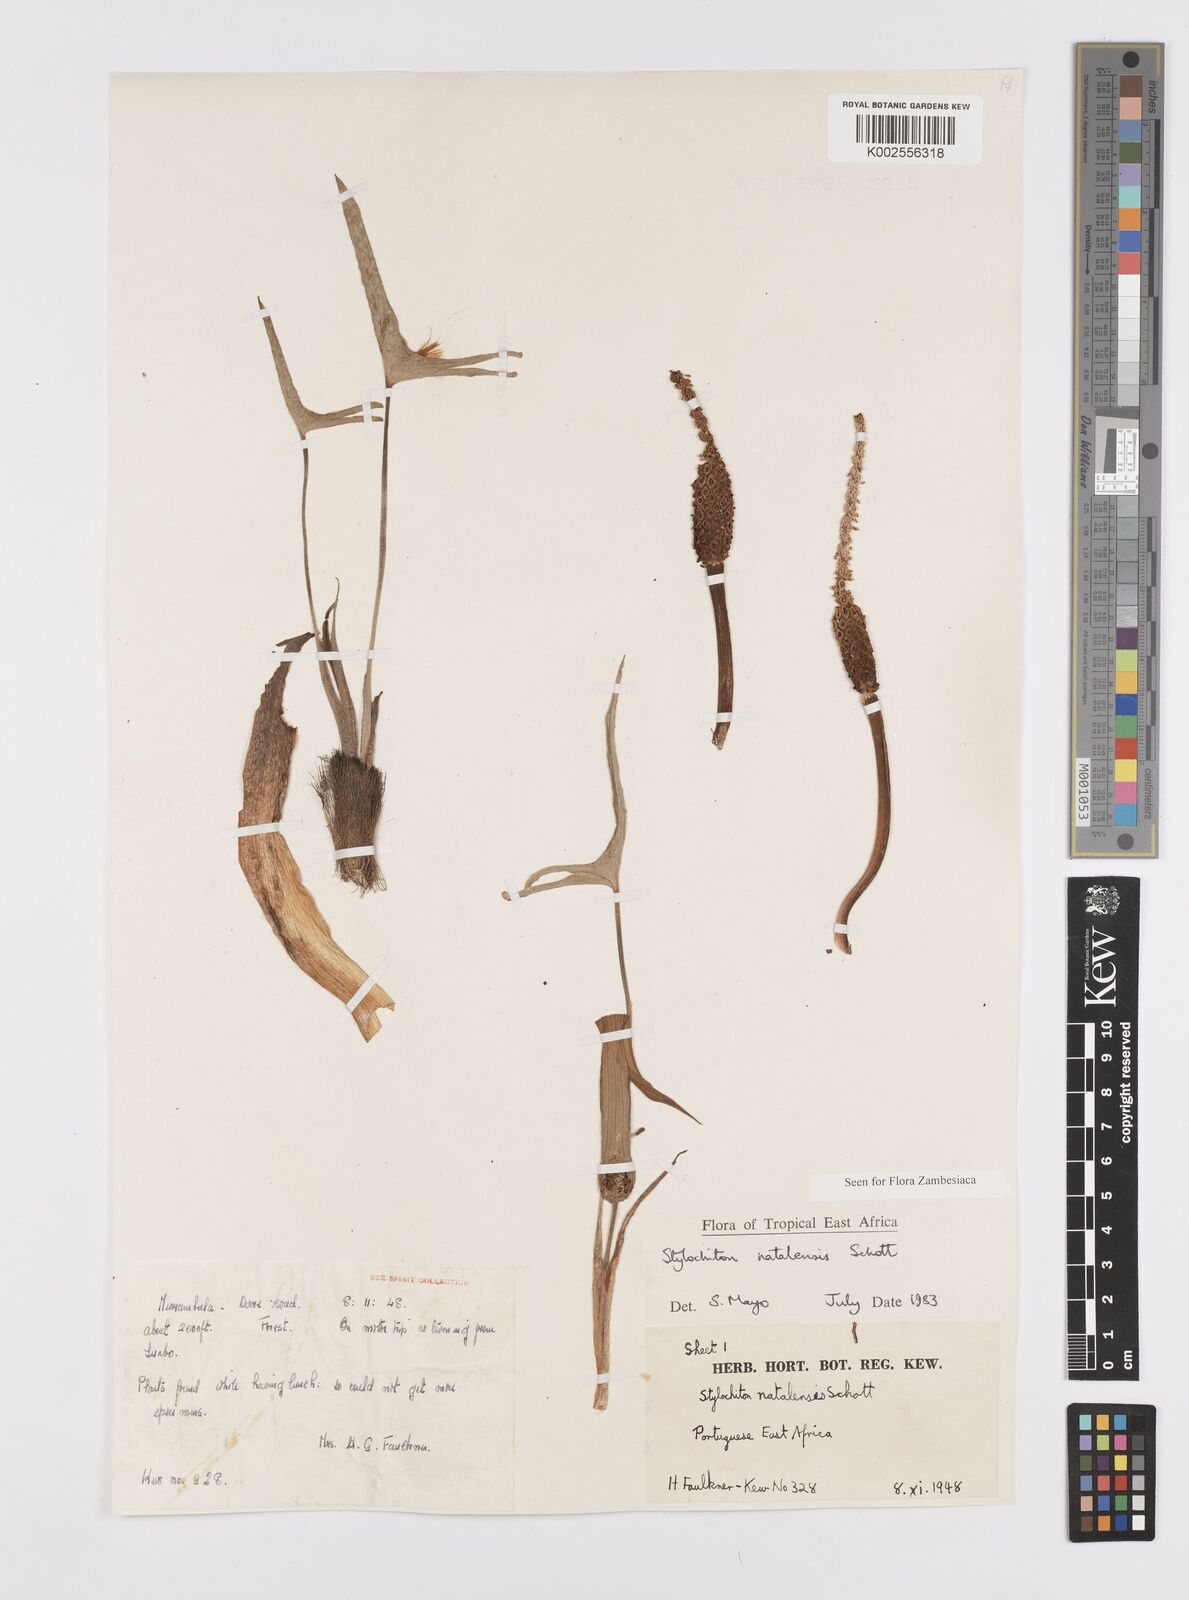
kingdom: Plantae
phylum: Tracheophyta
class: Liliopsida
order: Alismatales
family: Araceae
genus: Stylochaeton
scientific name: Stylochaeton natalense
